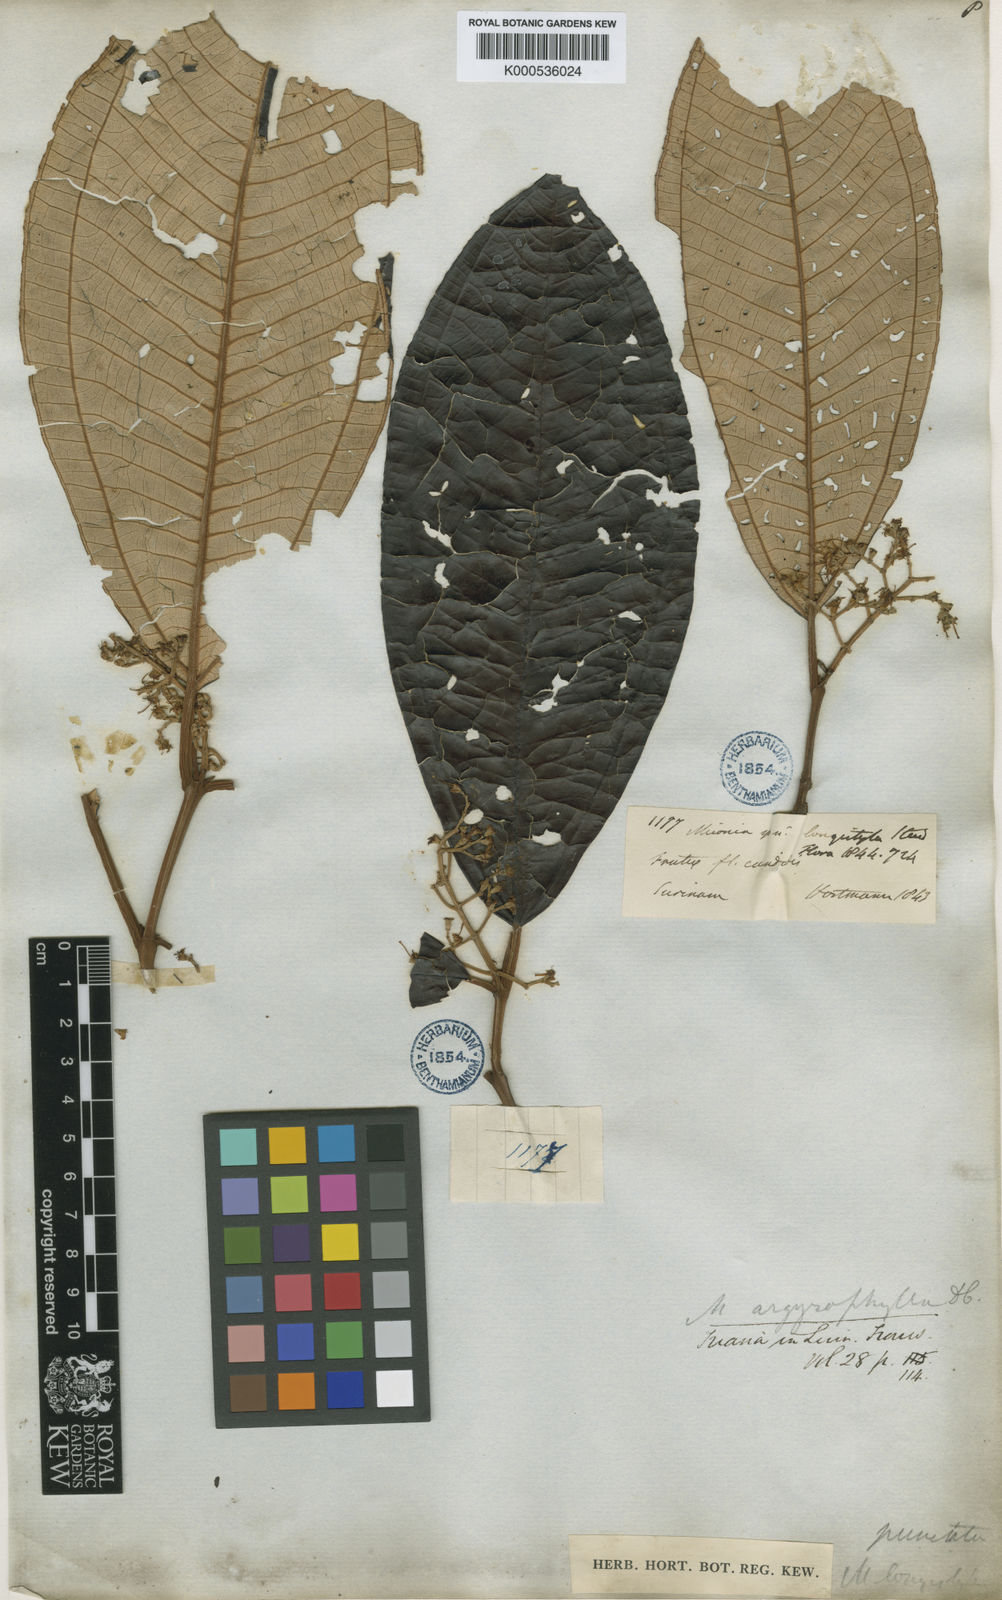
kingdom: Plantae
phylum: Tracheophyta
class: Magnoliopsida
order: Myrtales
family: Melastomataceae
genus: Miconia
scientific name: Miconia argyrophylla
